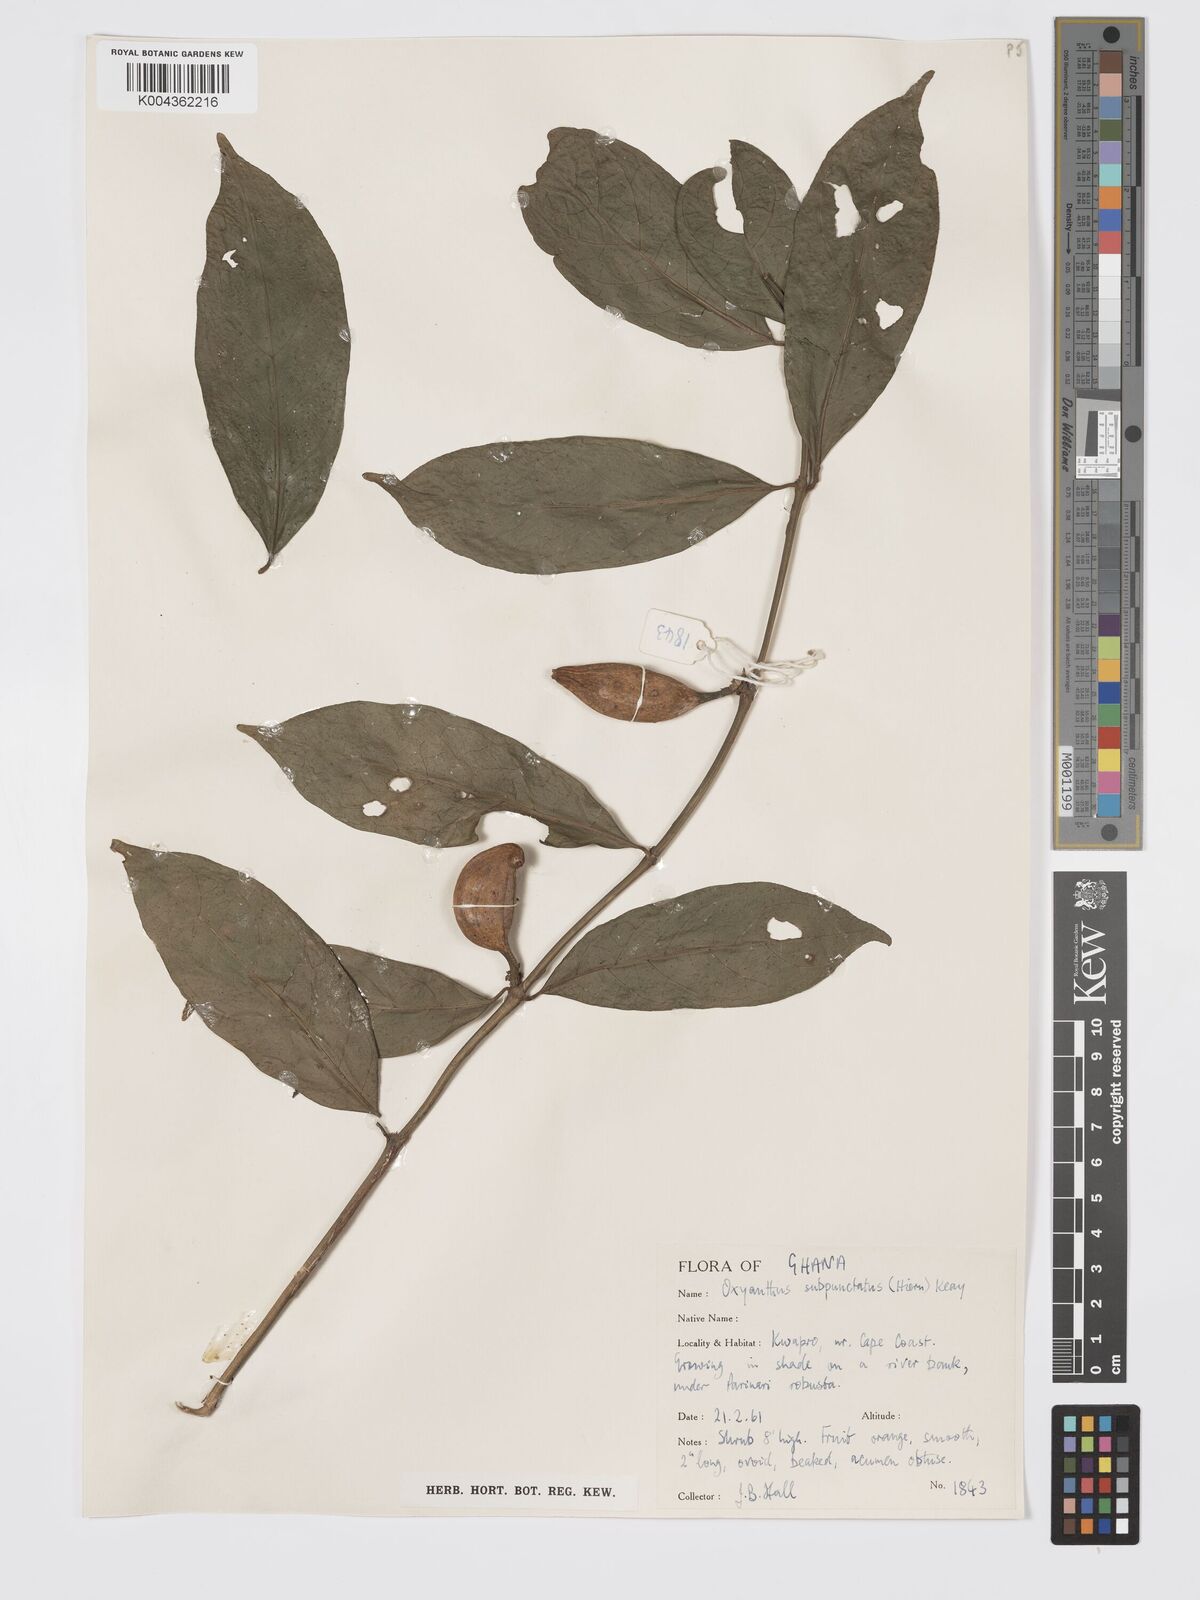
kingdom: Plantae
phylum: Tracheophyta
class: Magnoliopsida
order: Gentianales
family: Rubiaceae
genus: Oxyanthus
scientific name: Oxyanthus subpunctatus
